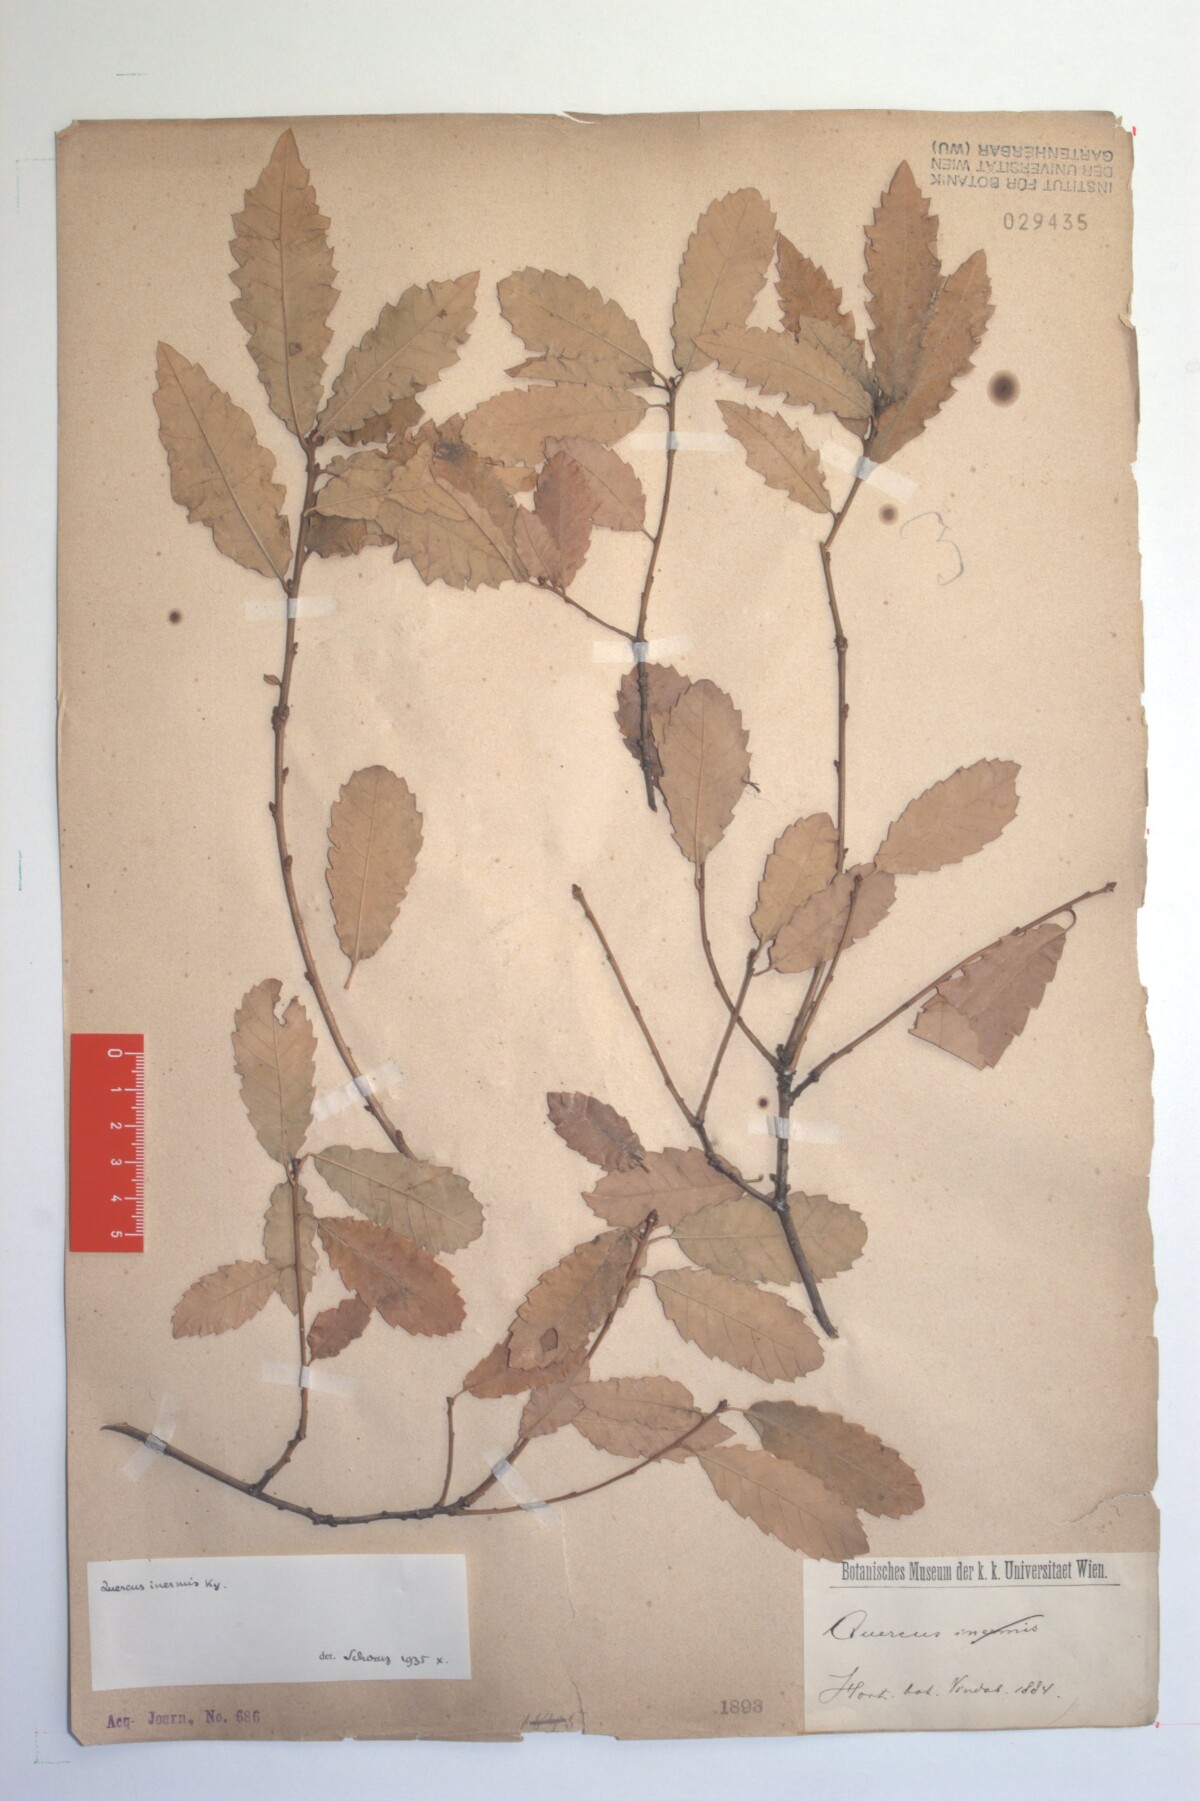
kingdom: Plantae
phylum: Tracheophyta
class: Magnoliopsida
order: Fagales
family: Fagaceae
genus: Quercus
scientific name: Quercus infectoria
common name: Aleppo oak
